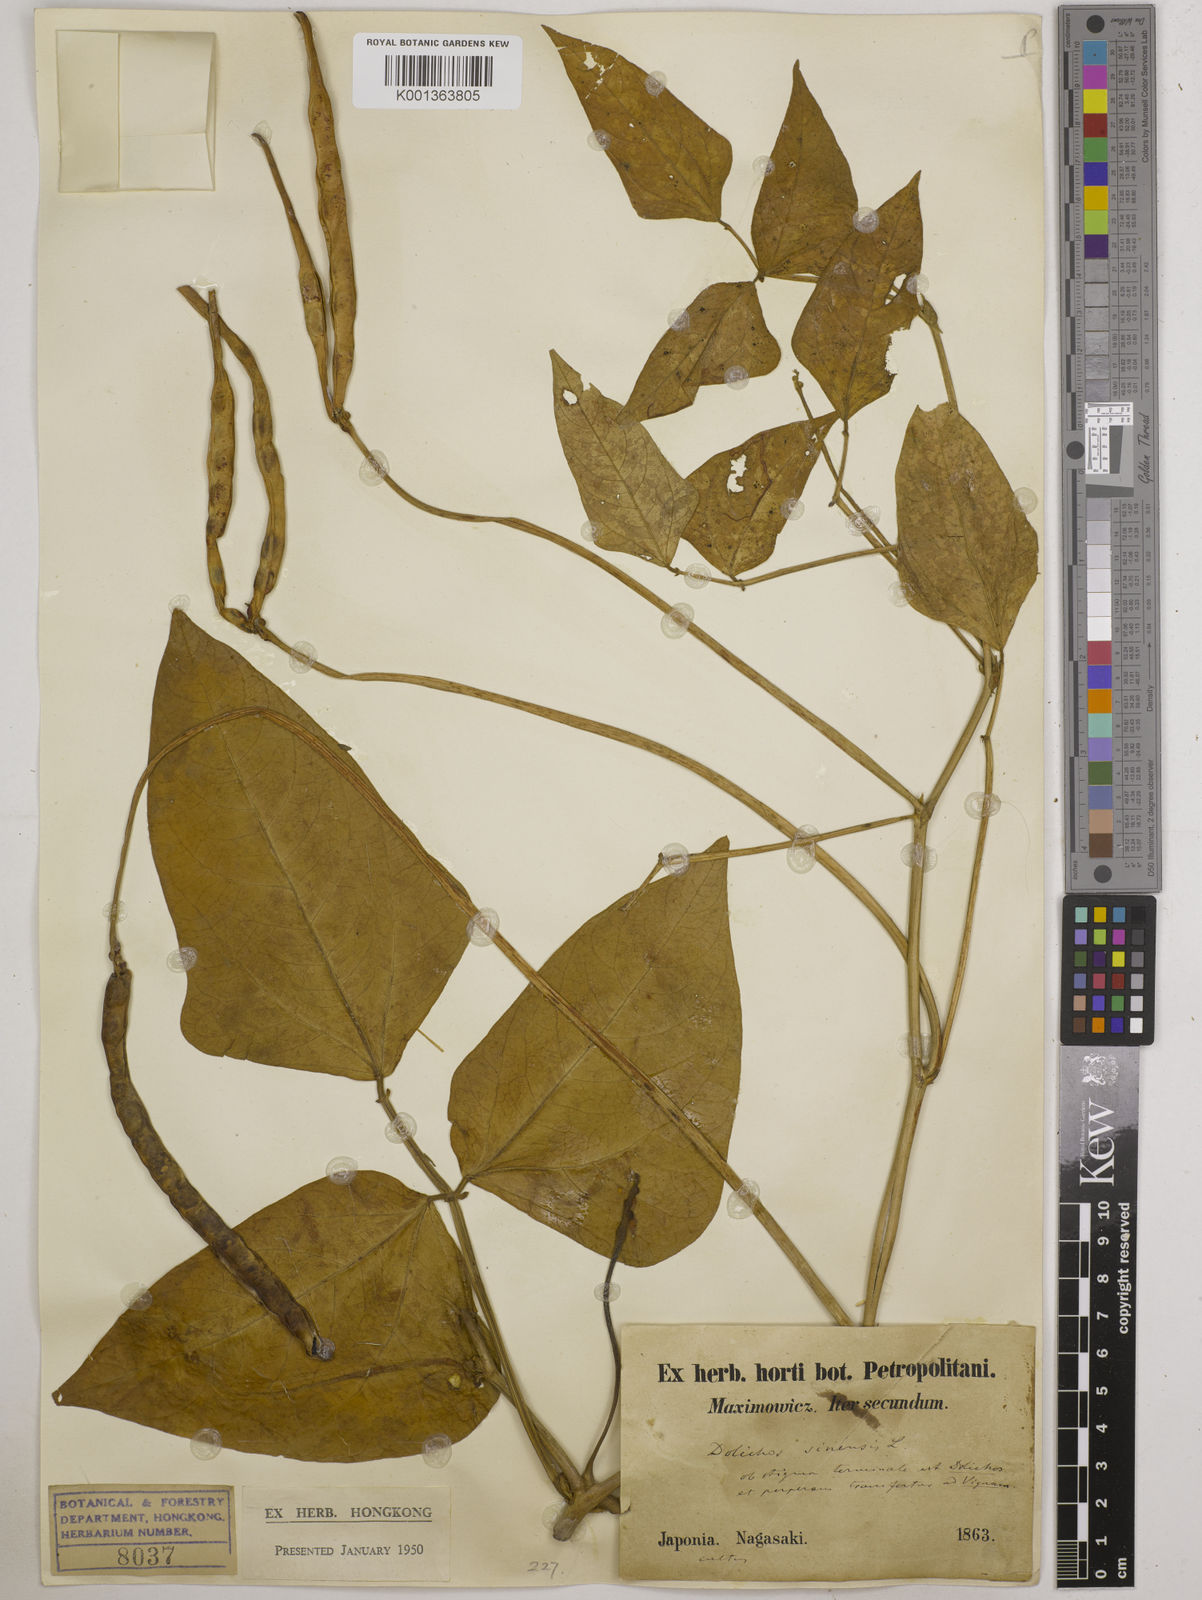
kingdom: Plantae
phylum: Tracheophyta
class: Magnoliopsida
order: Fabales
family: Fabaceae
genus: Vigna
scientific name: Vigna
